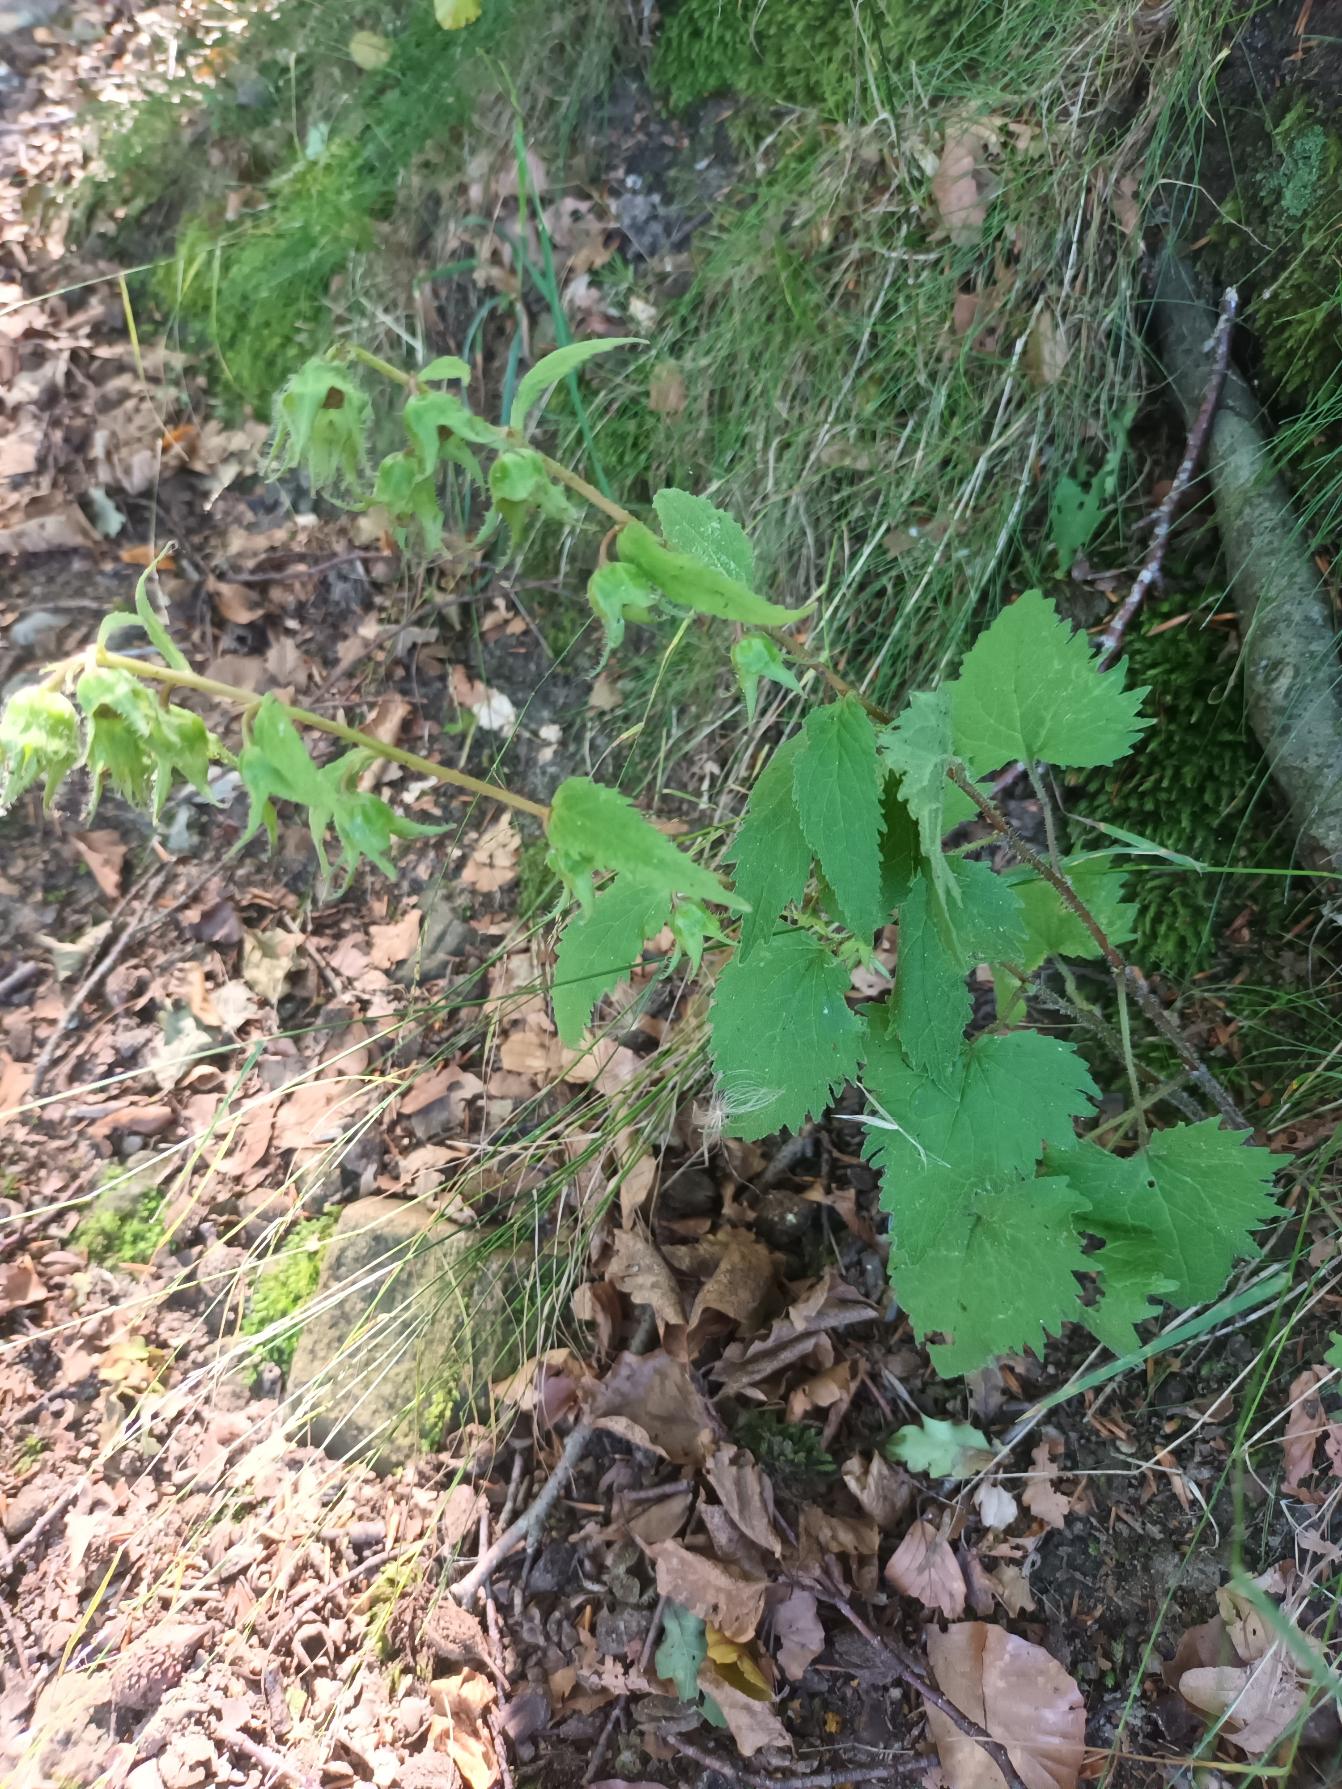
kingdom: Plantae
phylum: Tracheophyta
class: Magnoliopsida
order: Asterales
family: Campanulaceae
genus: Campanula
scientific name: Campanula trachelium
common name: Nælde-klokke
